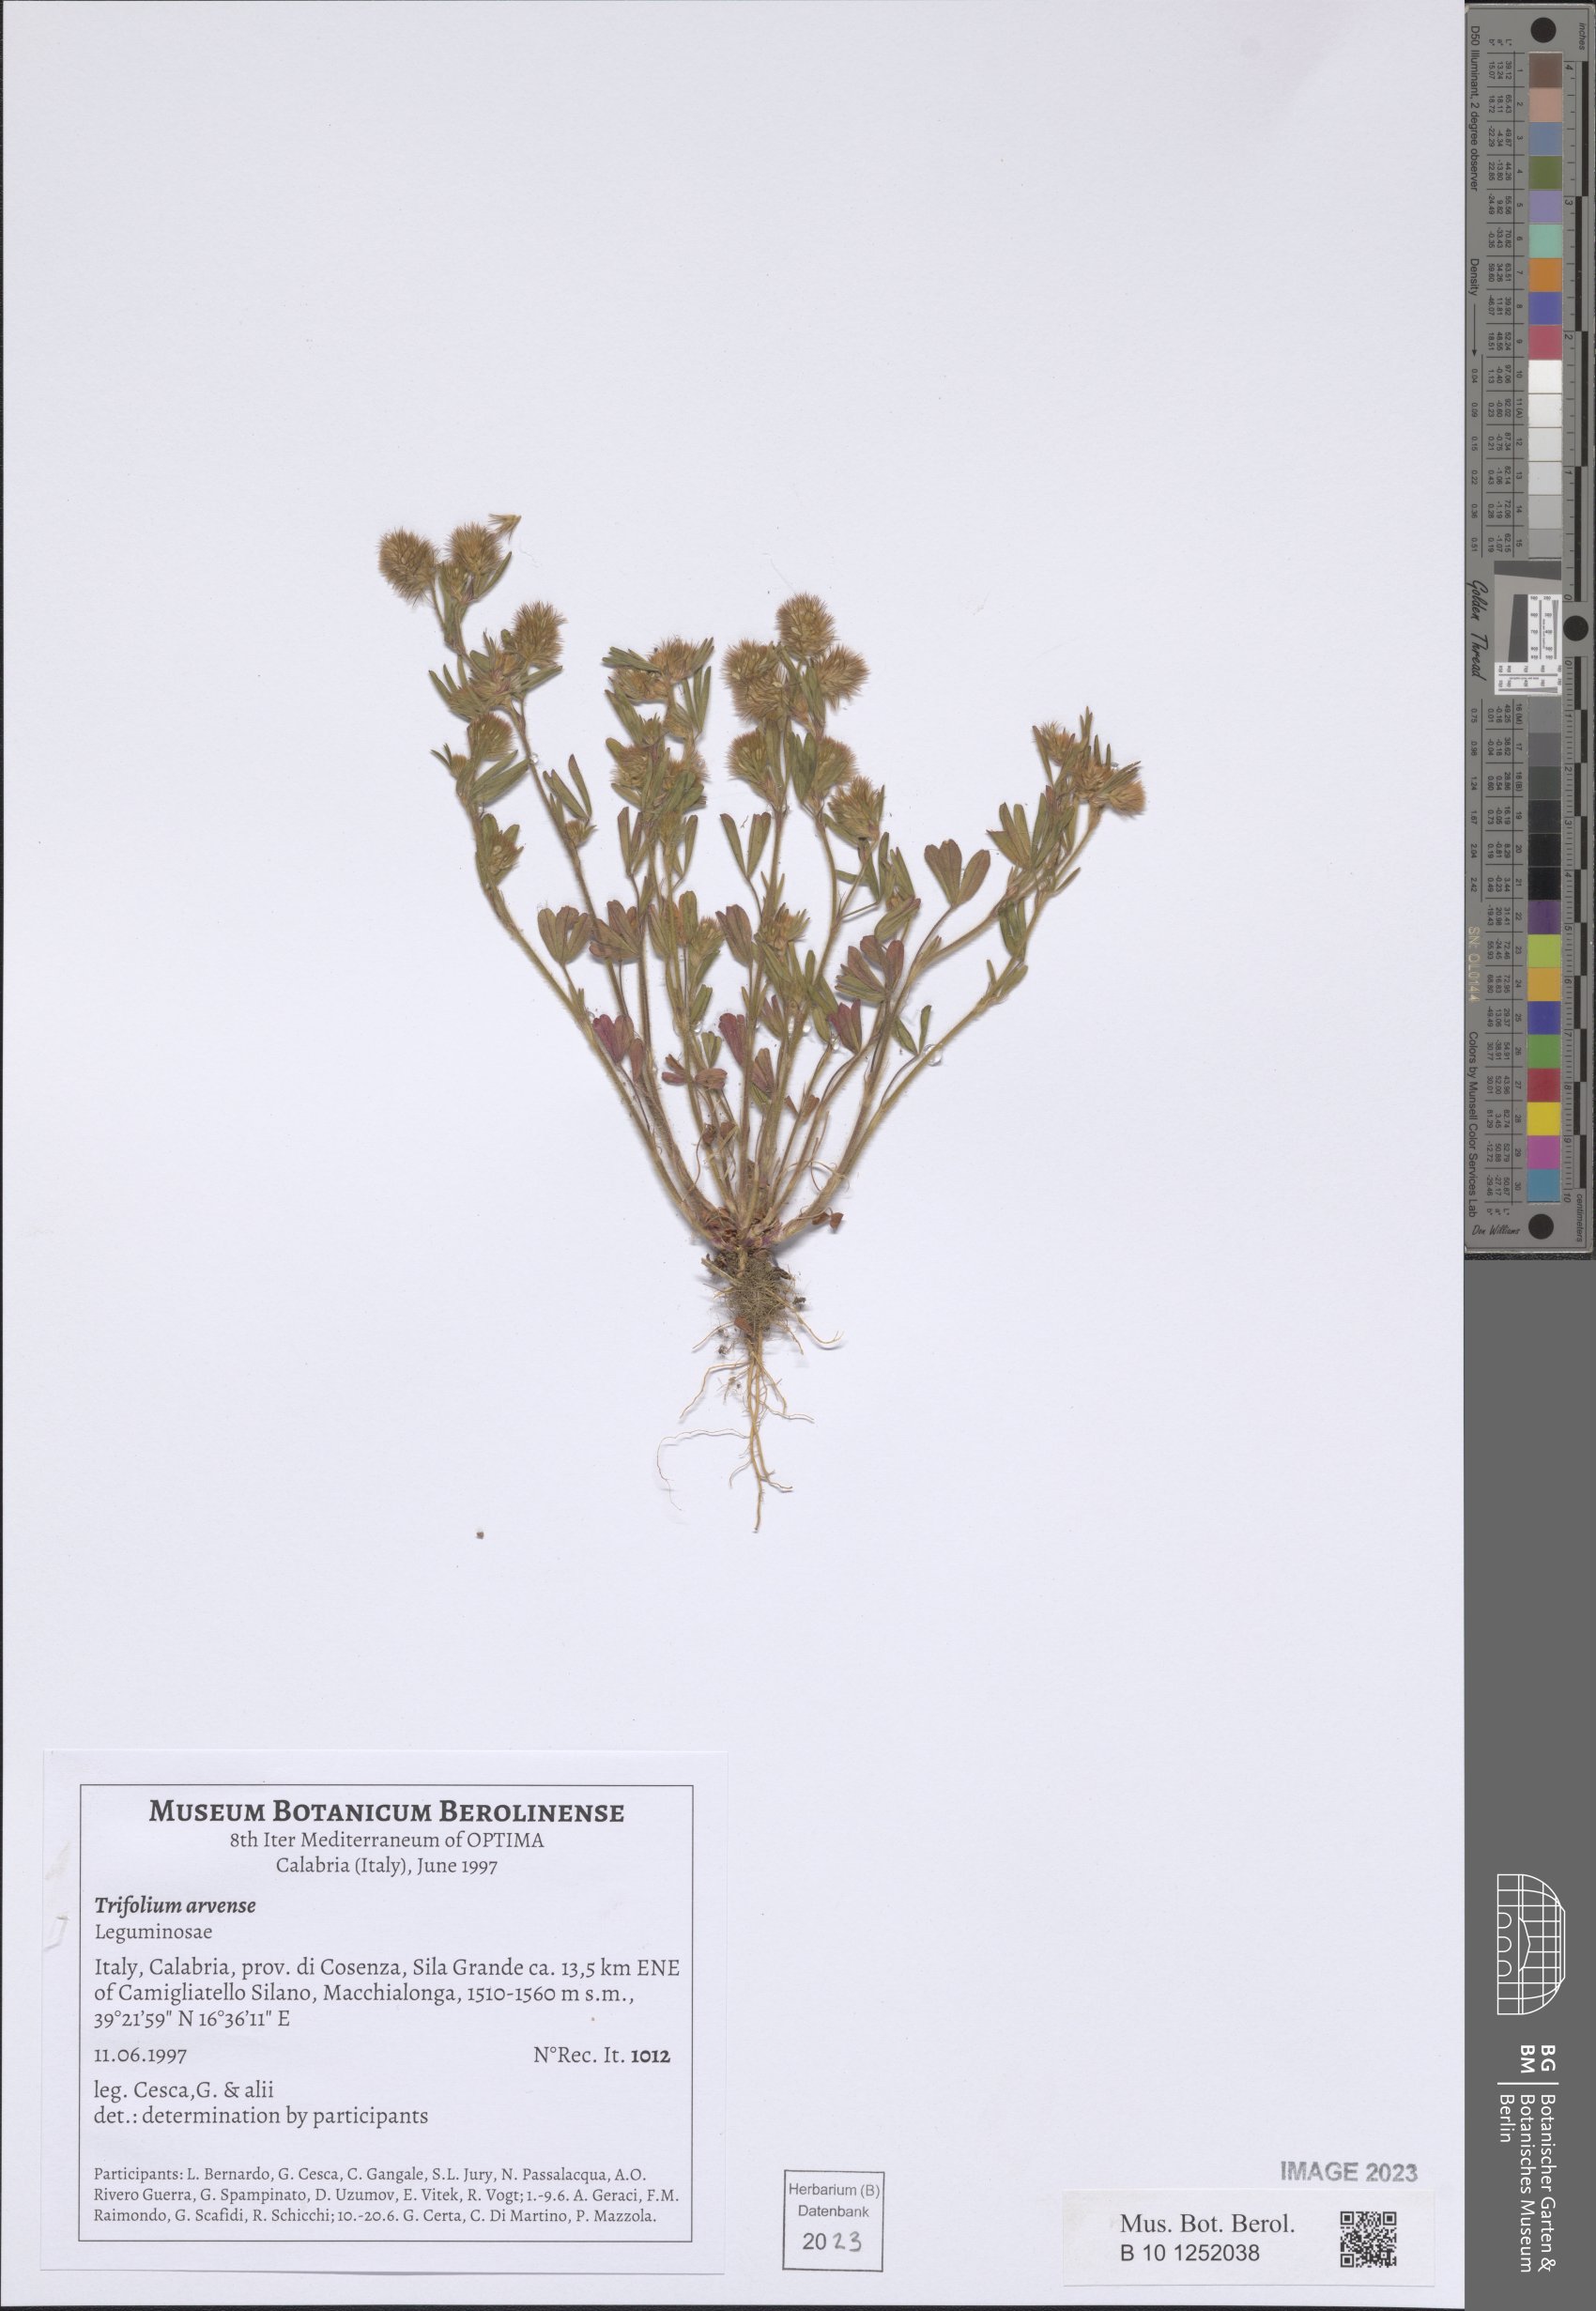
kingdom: Plantae
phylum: Tracheophyta
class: Magnoliopsida
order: Fabales
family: Fabaceae
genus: Trifolium
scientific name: Trifolium arvense
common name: Hare's-foot clover
